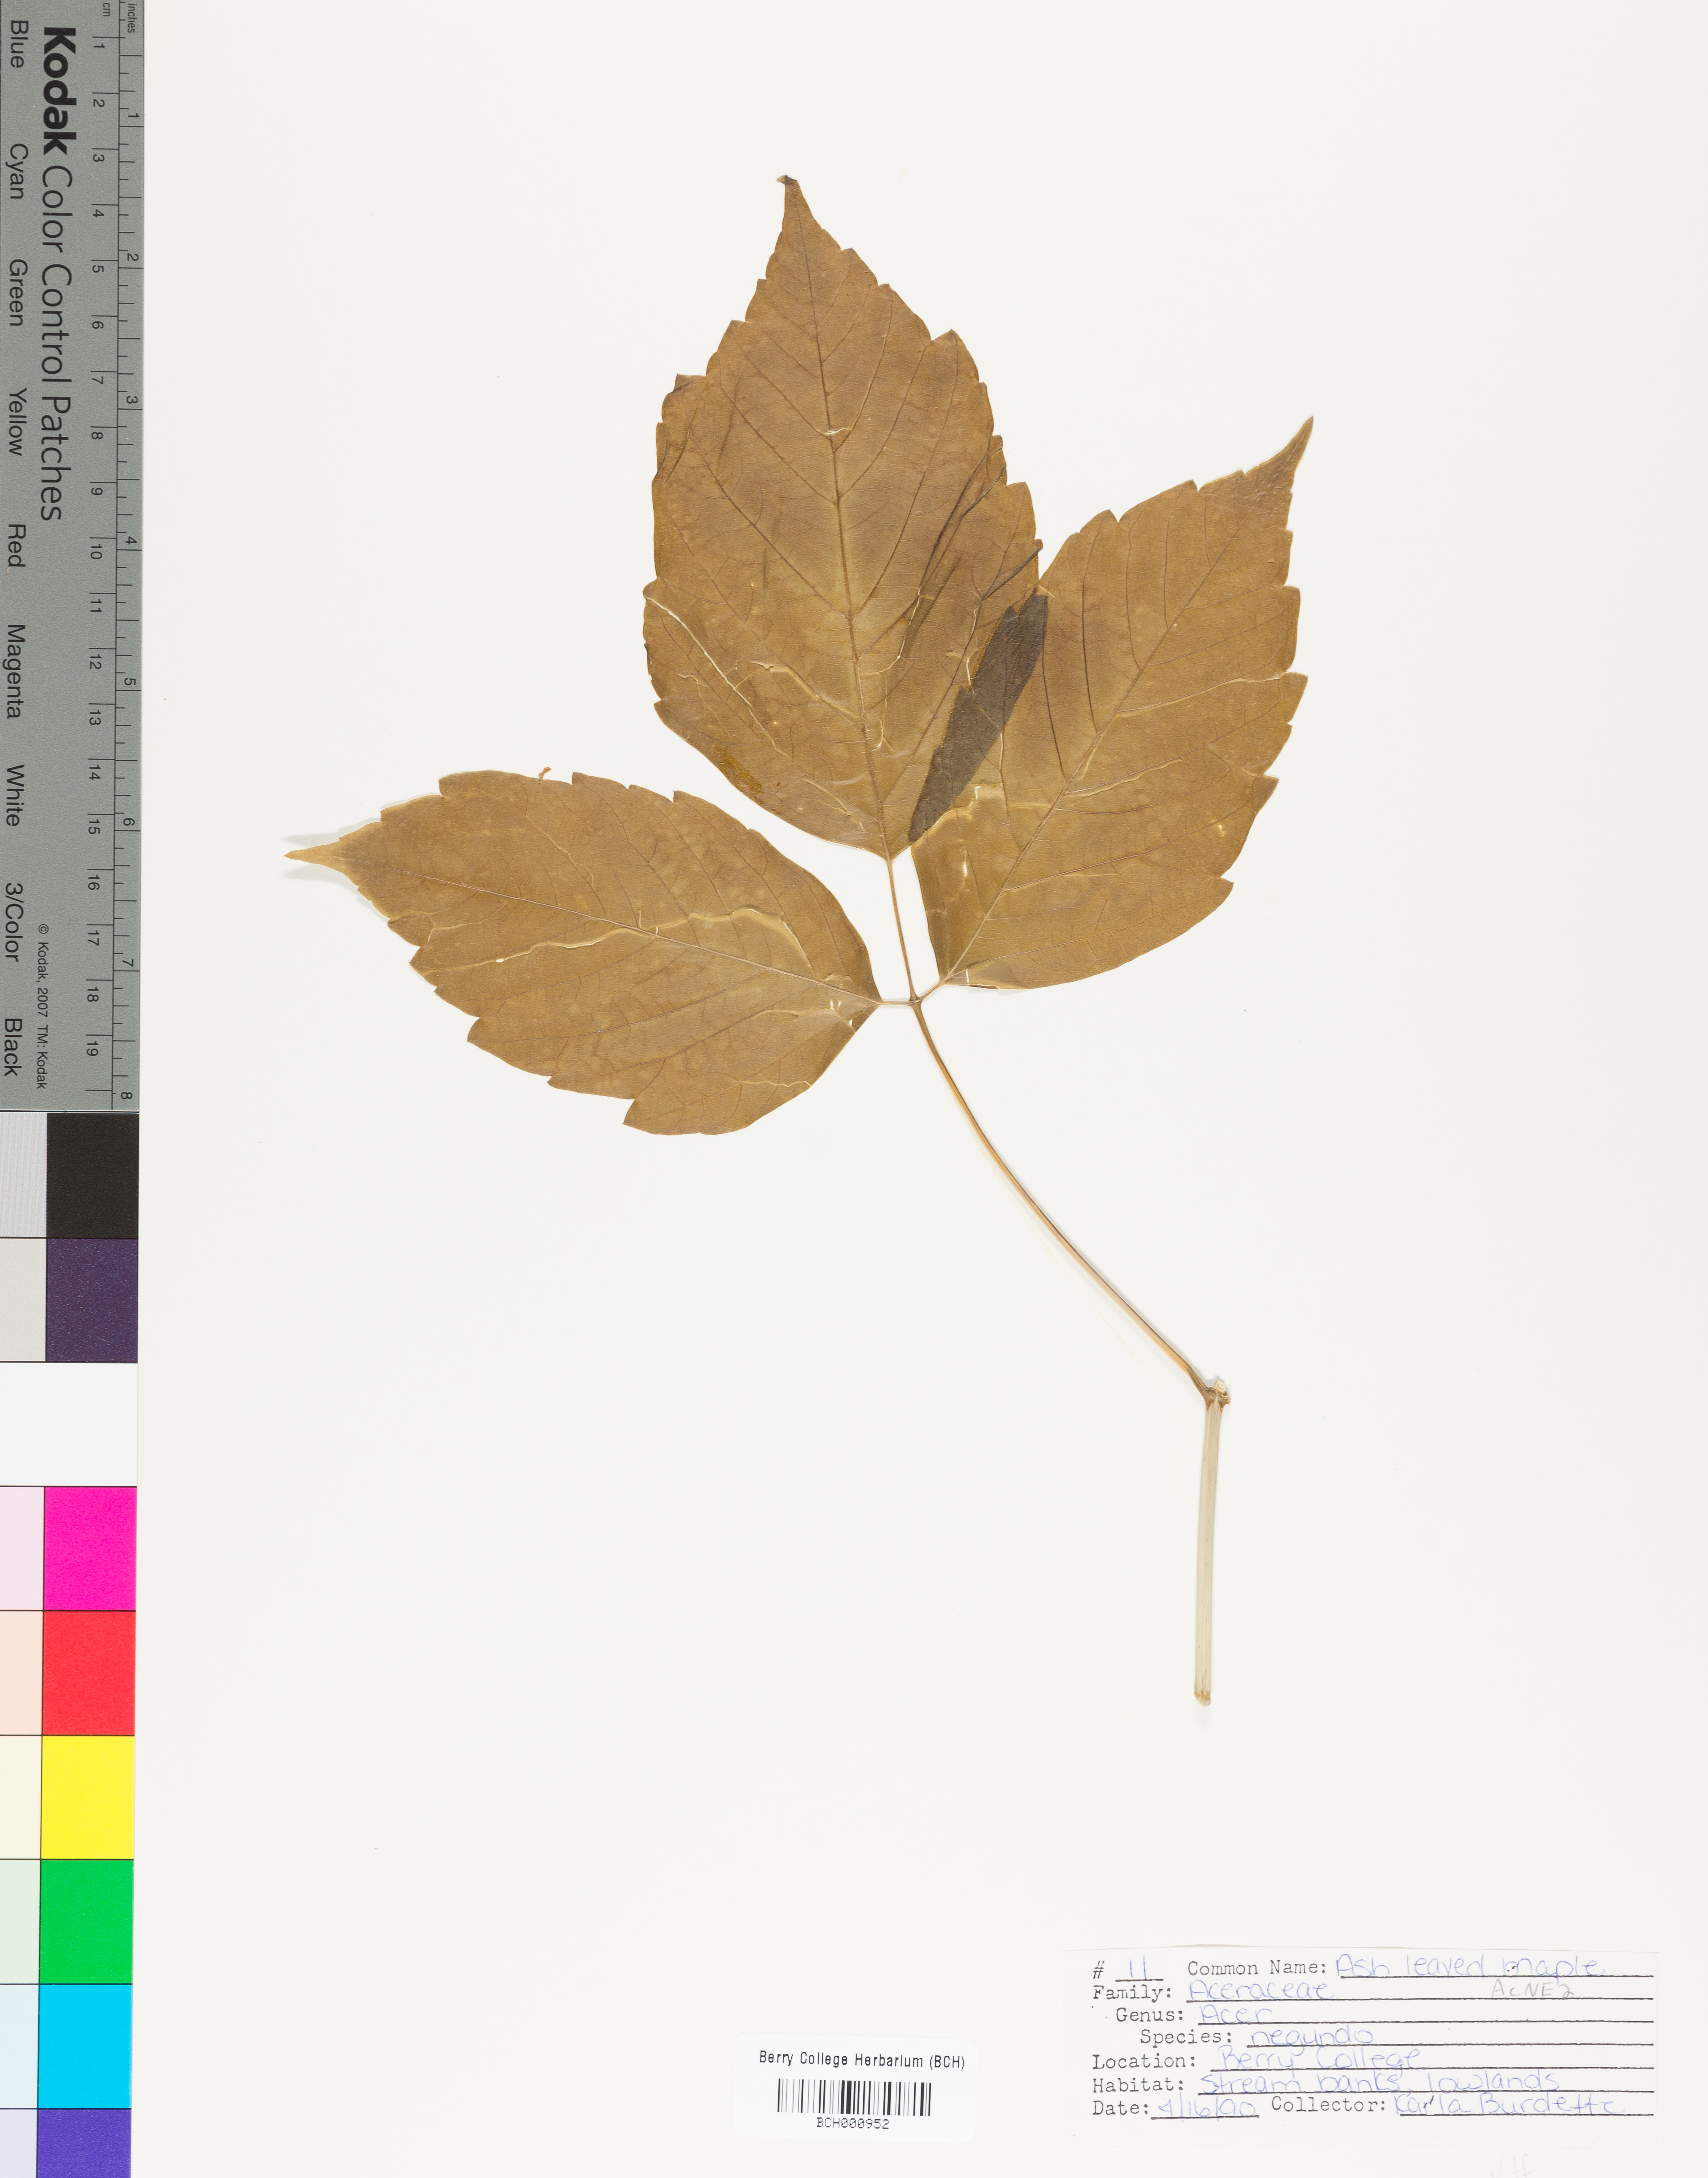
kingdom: Plantae
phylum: Tracheophyta
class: Magnoliopsida
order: Sapindales
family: Sapindaceae
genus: Acer
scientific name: Acer negundo
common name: Ashleaf maple
